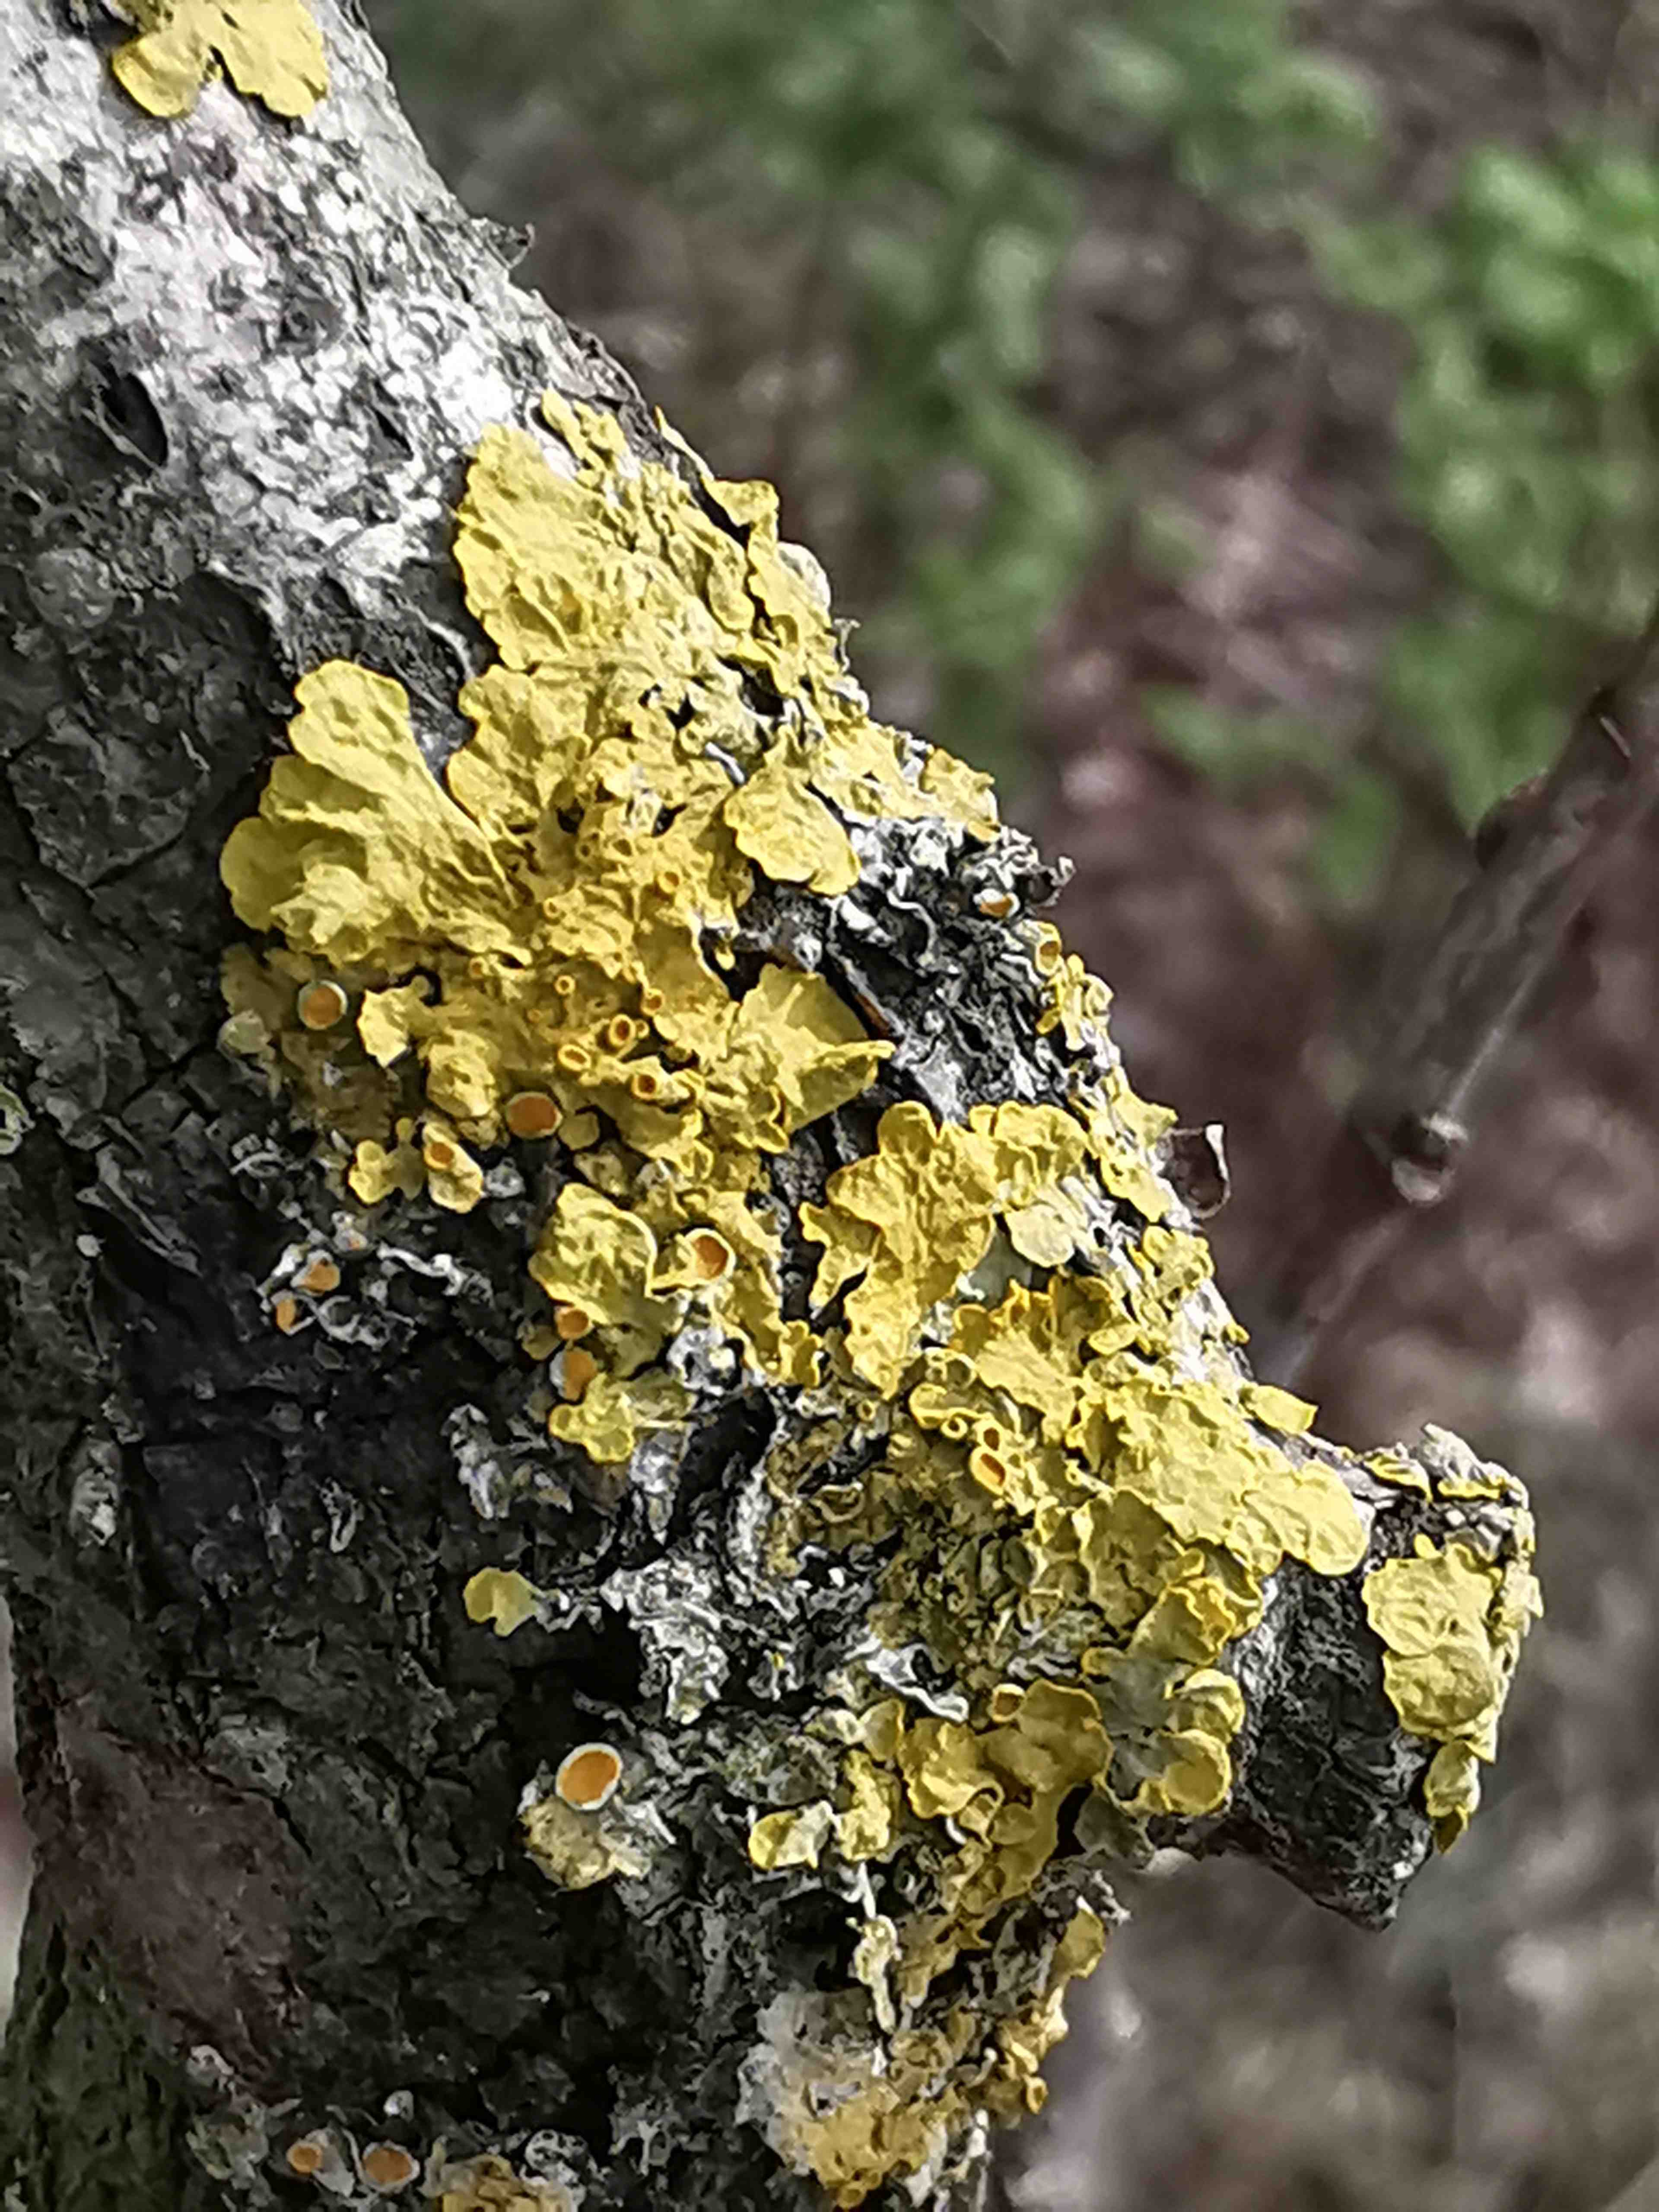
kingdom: Fungi
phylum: Ascomycota
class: Lecanoromycetes
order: Teloschistales
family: Teloschistaceae
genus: Xanthoria
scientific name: Xanthoria parietina
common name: almindelig væggelav
